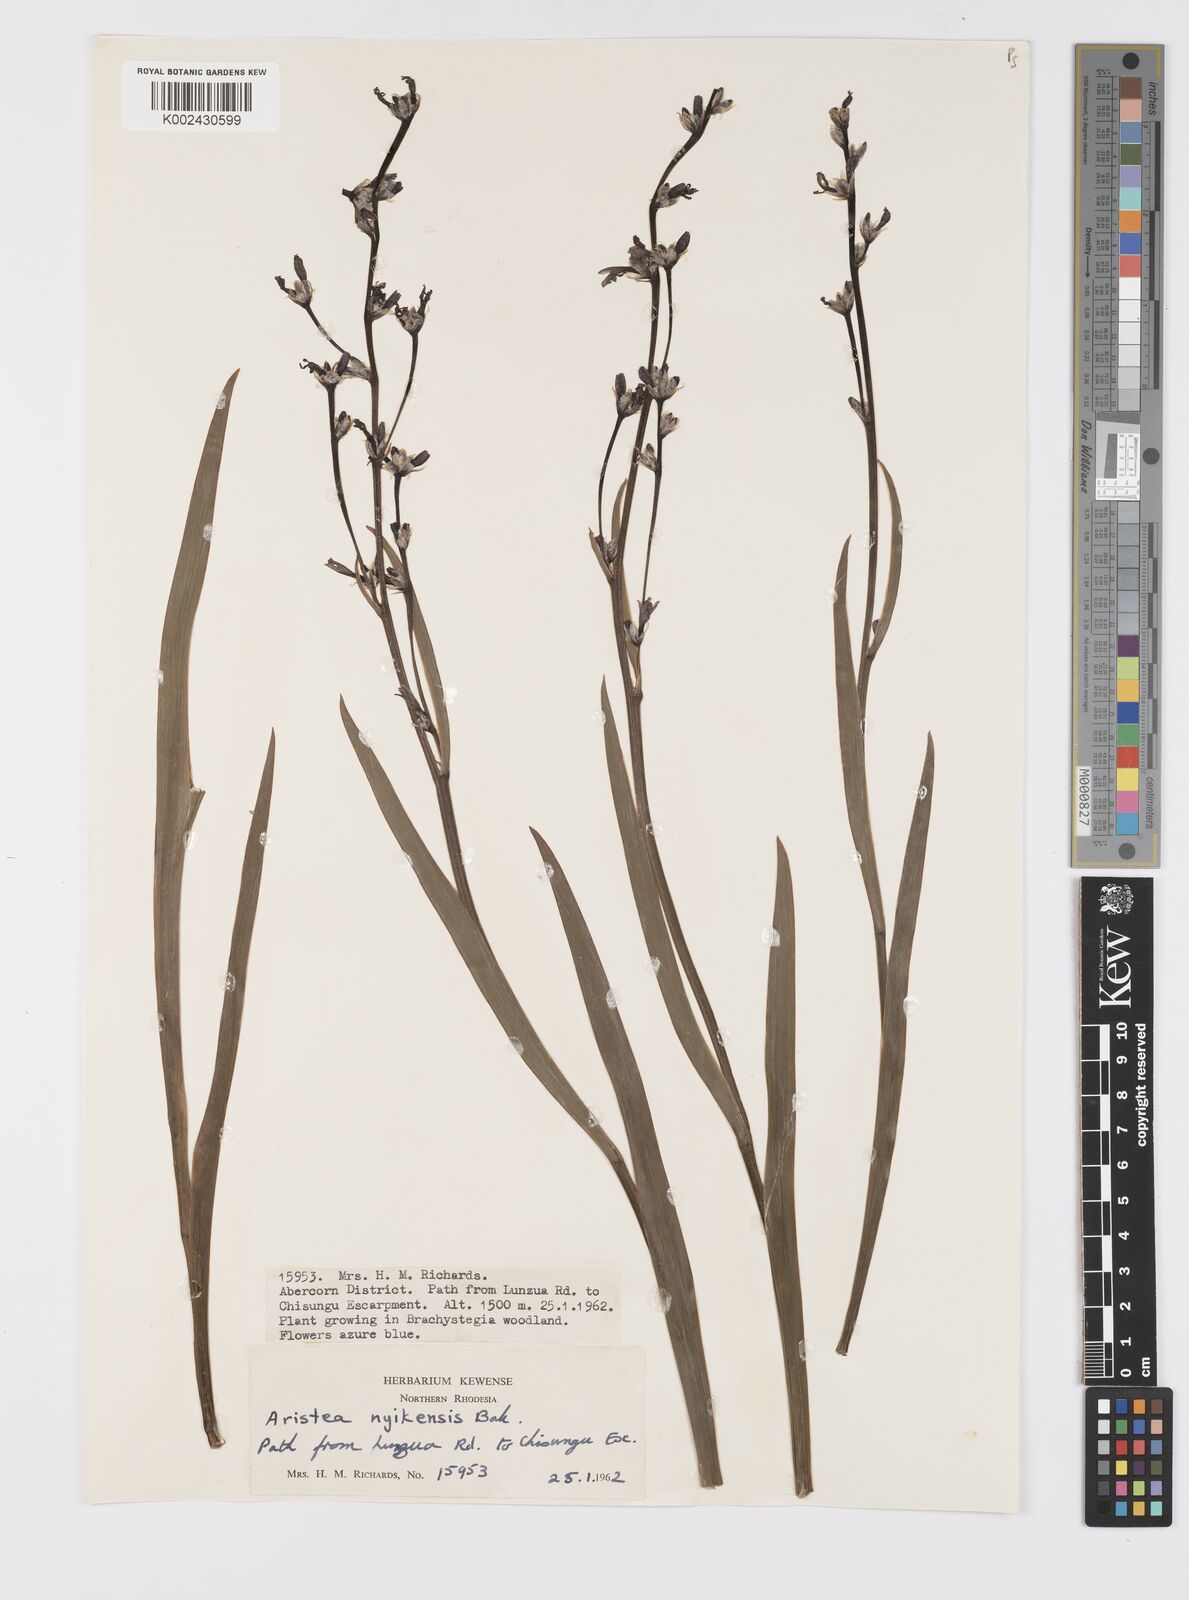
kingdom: Plantae
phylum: Tracheophyta
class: Liliopsida
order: Asparagales
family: Iridaceae
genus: Aristea
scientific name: Aristea nyikensis
